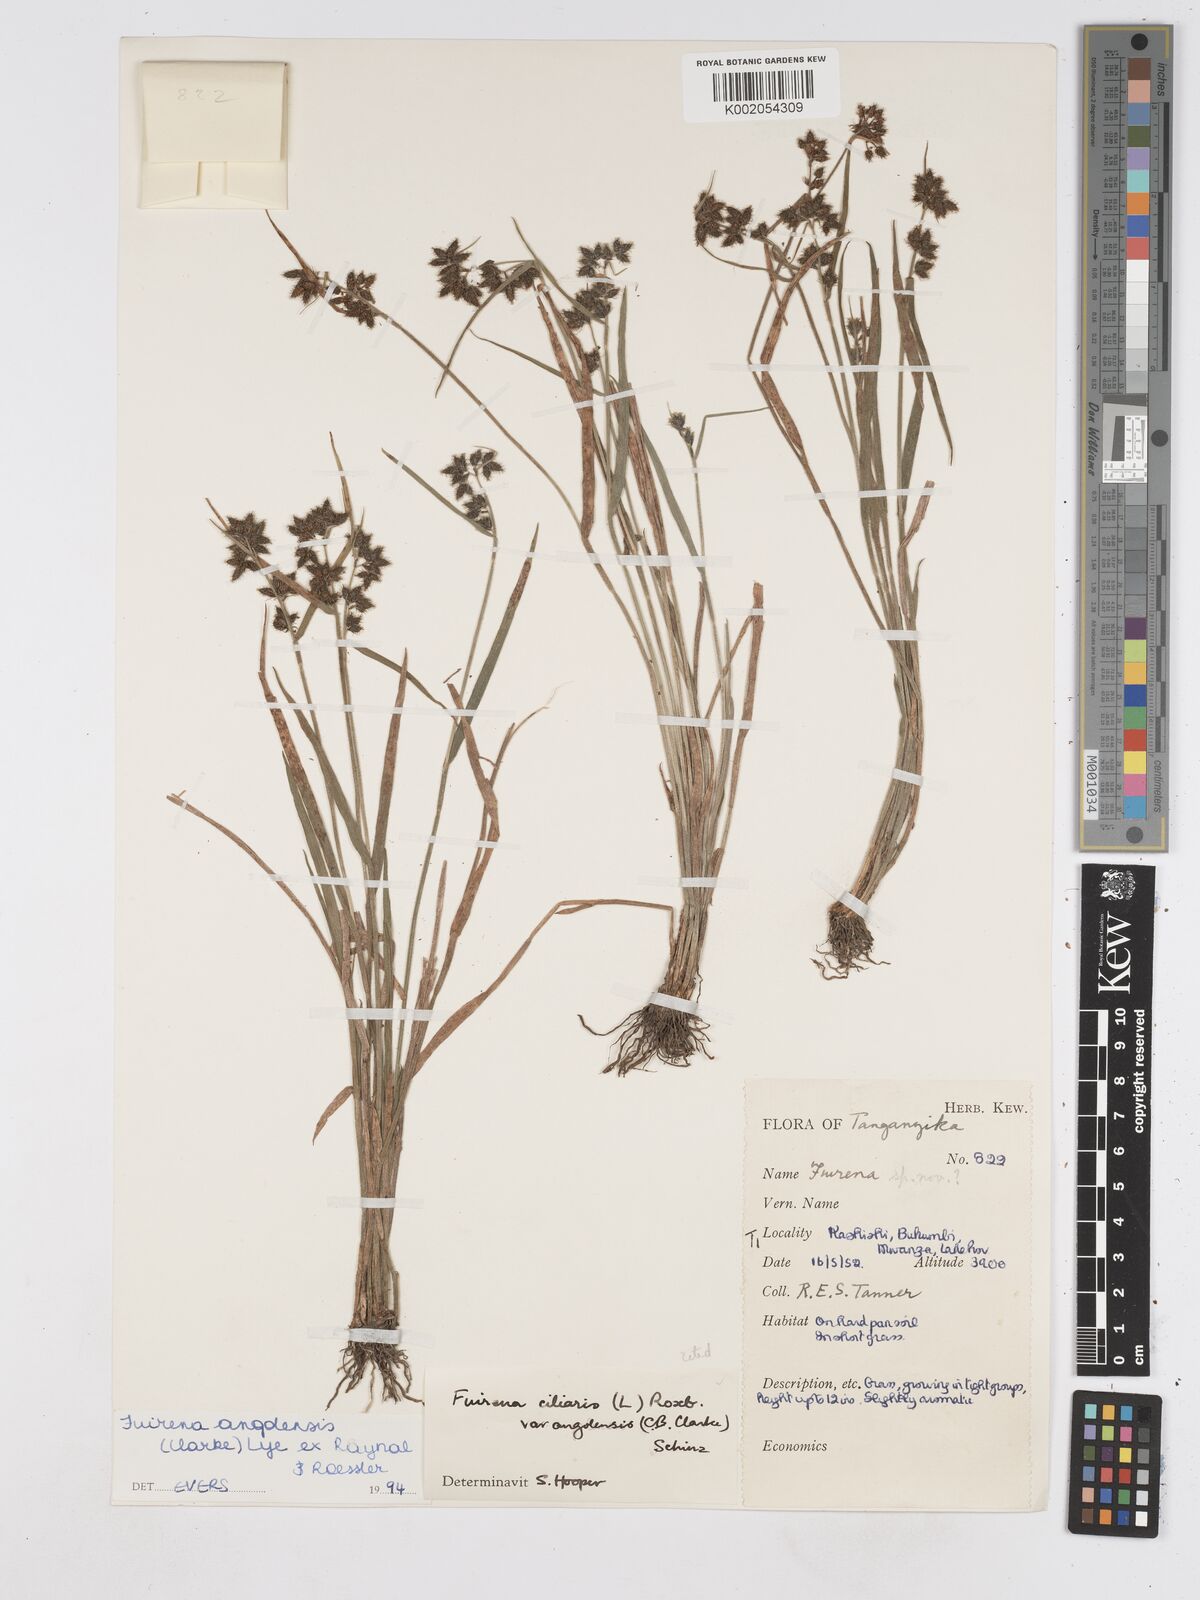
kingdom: Plantae
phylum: Tracheophyta
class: Liliopsida
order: Poales
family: Cyperaceae
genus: Fuirena
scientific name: Fuirena angolensis
